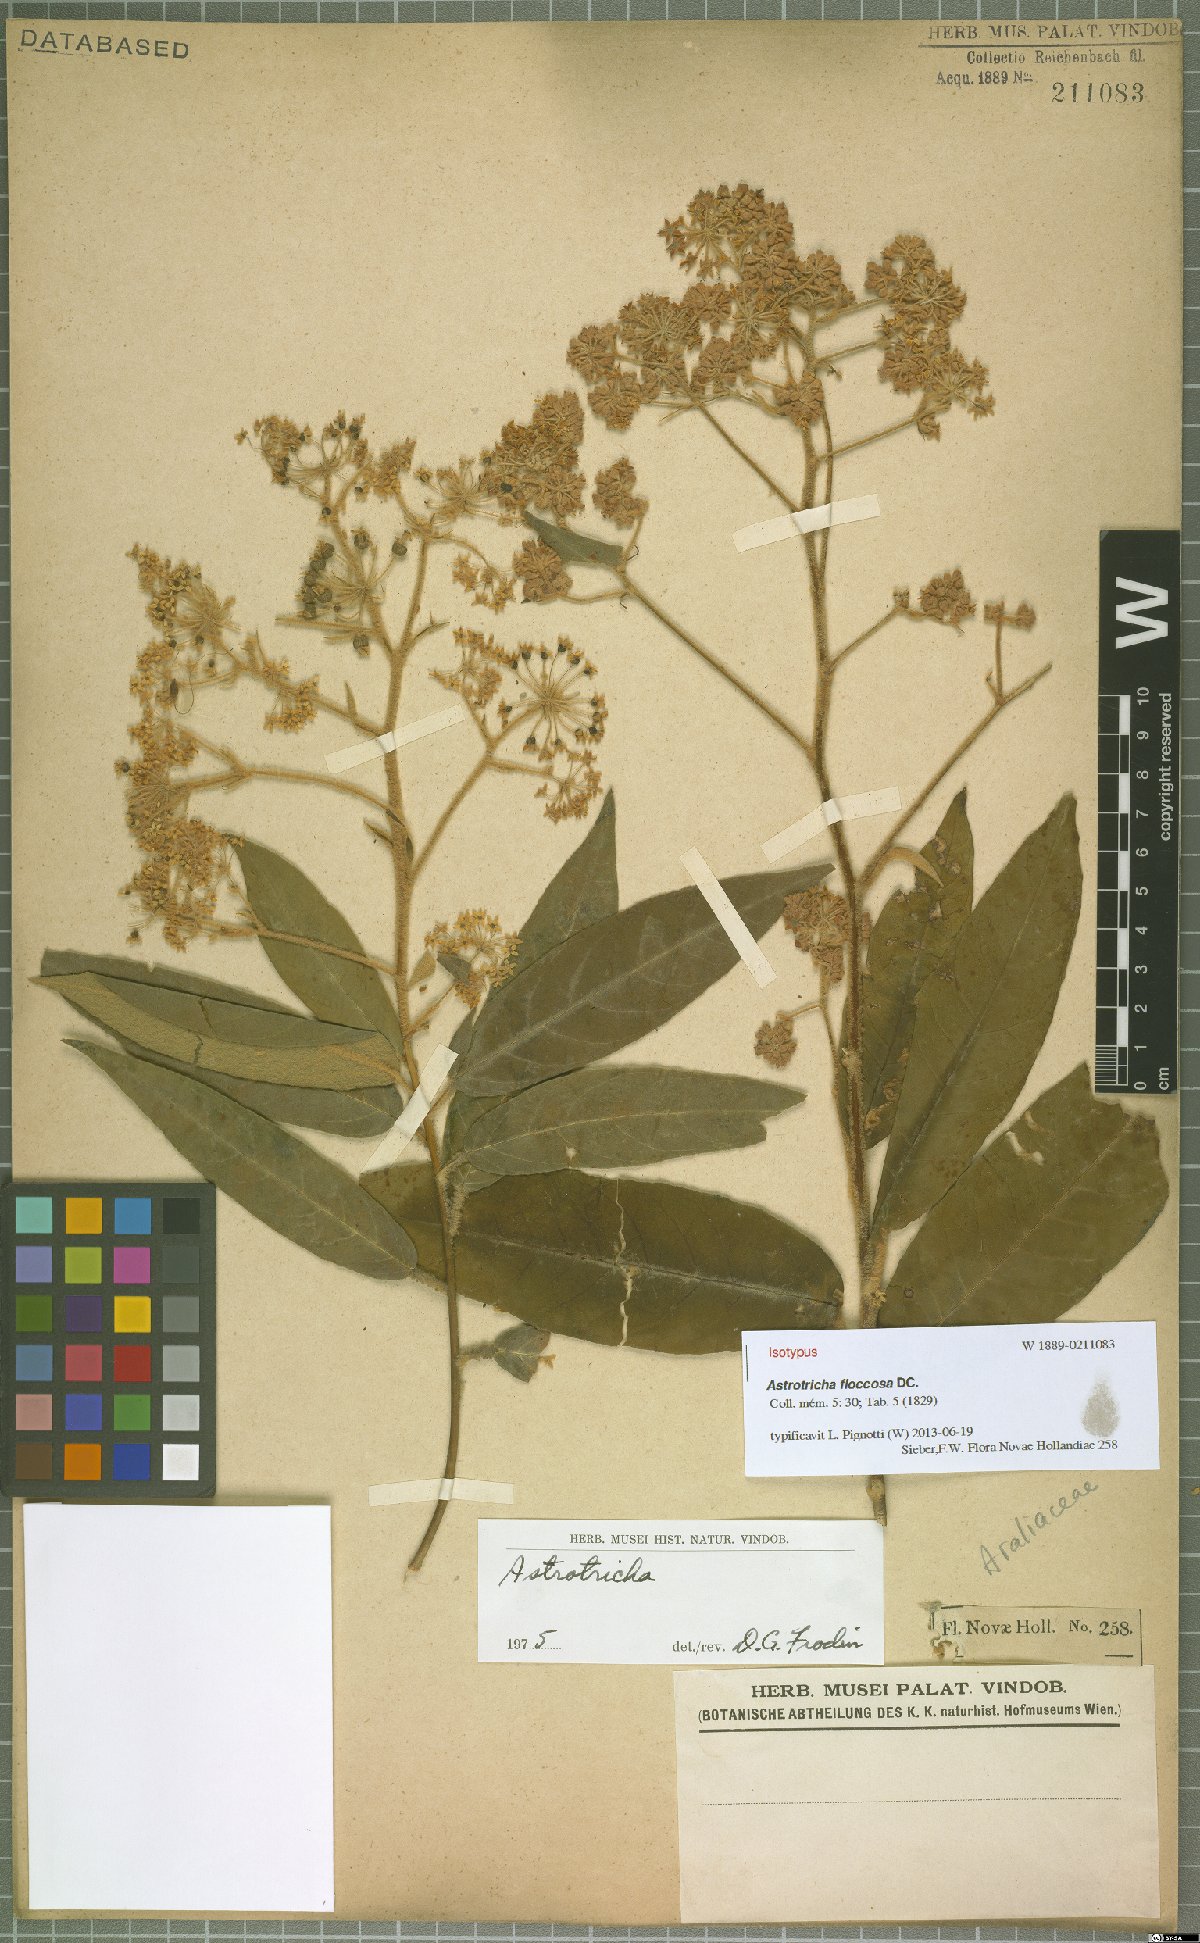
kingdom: Plantae
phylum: Tracheophyta
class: Magnoliopsida
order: Apiales
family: Araliaceae
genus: Astrotricha
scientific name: Astrotricha floccosa
